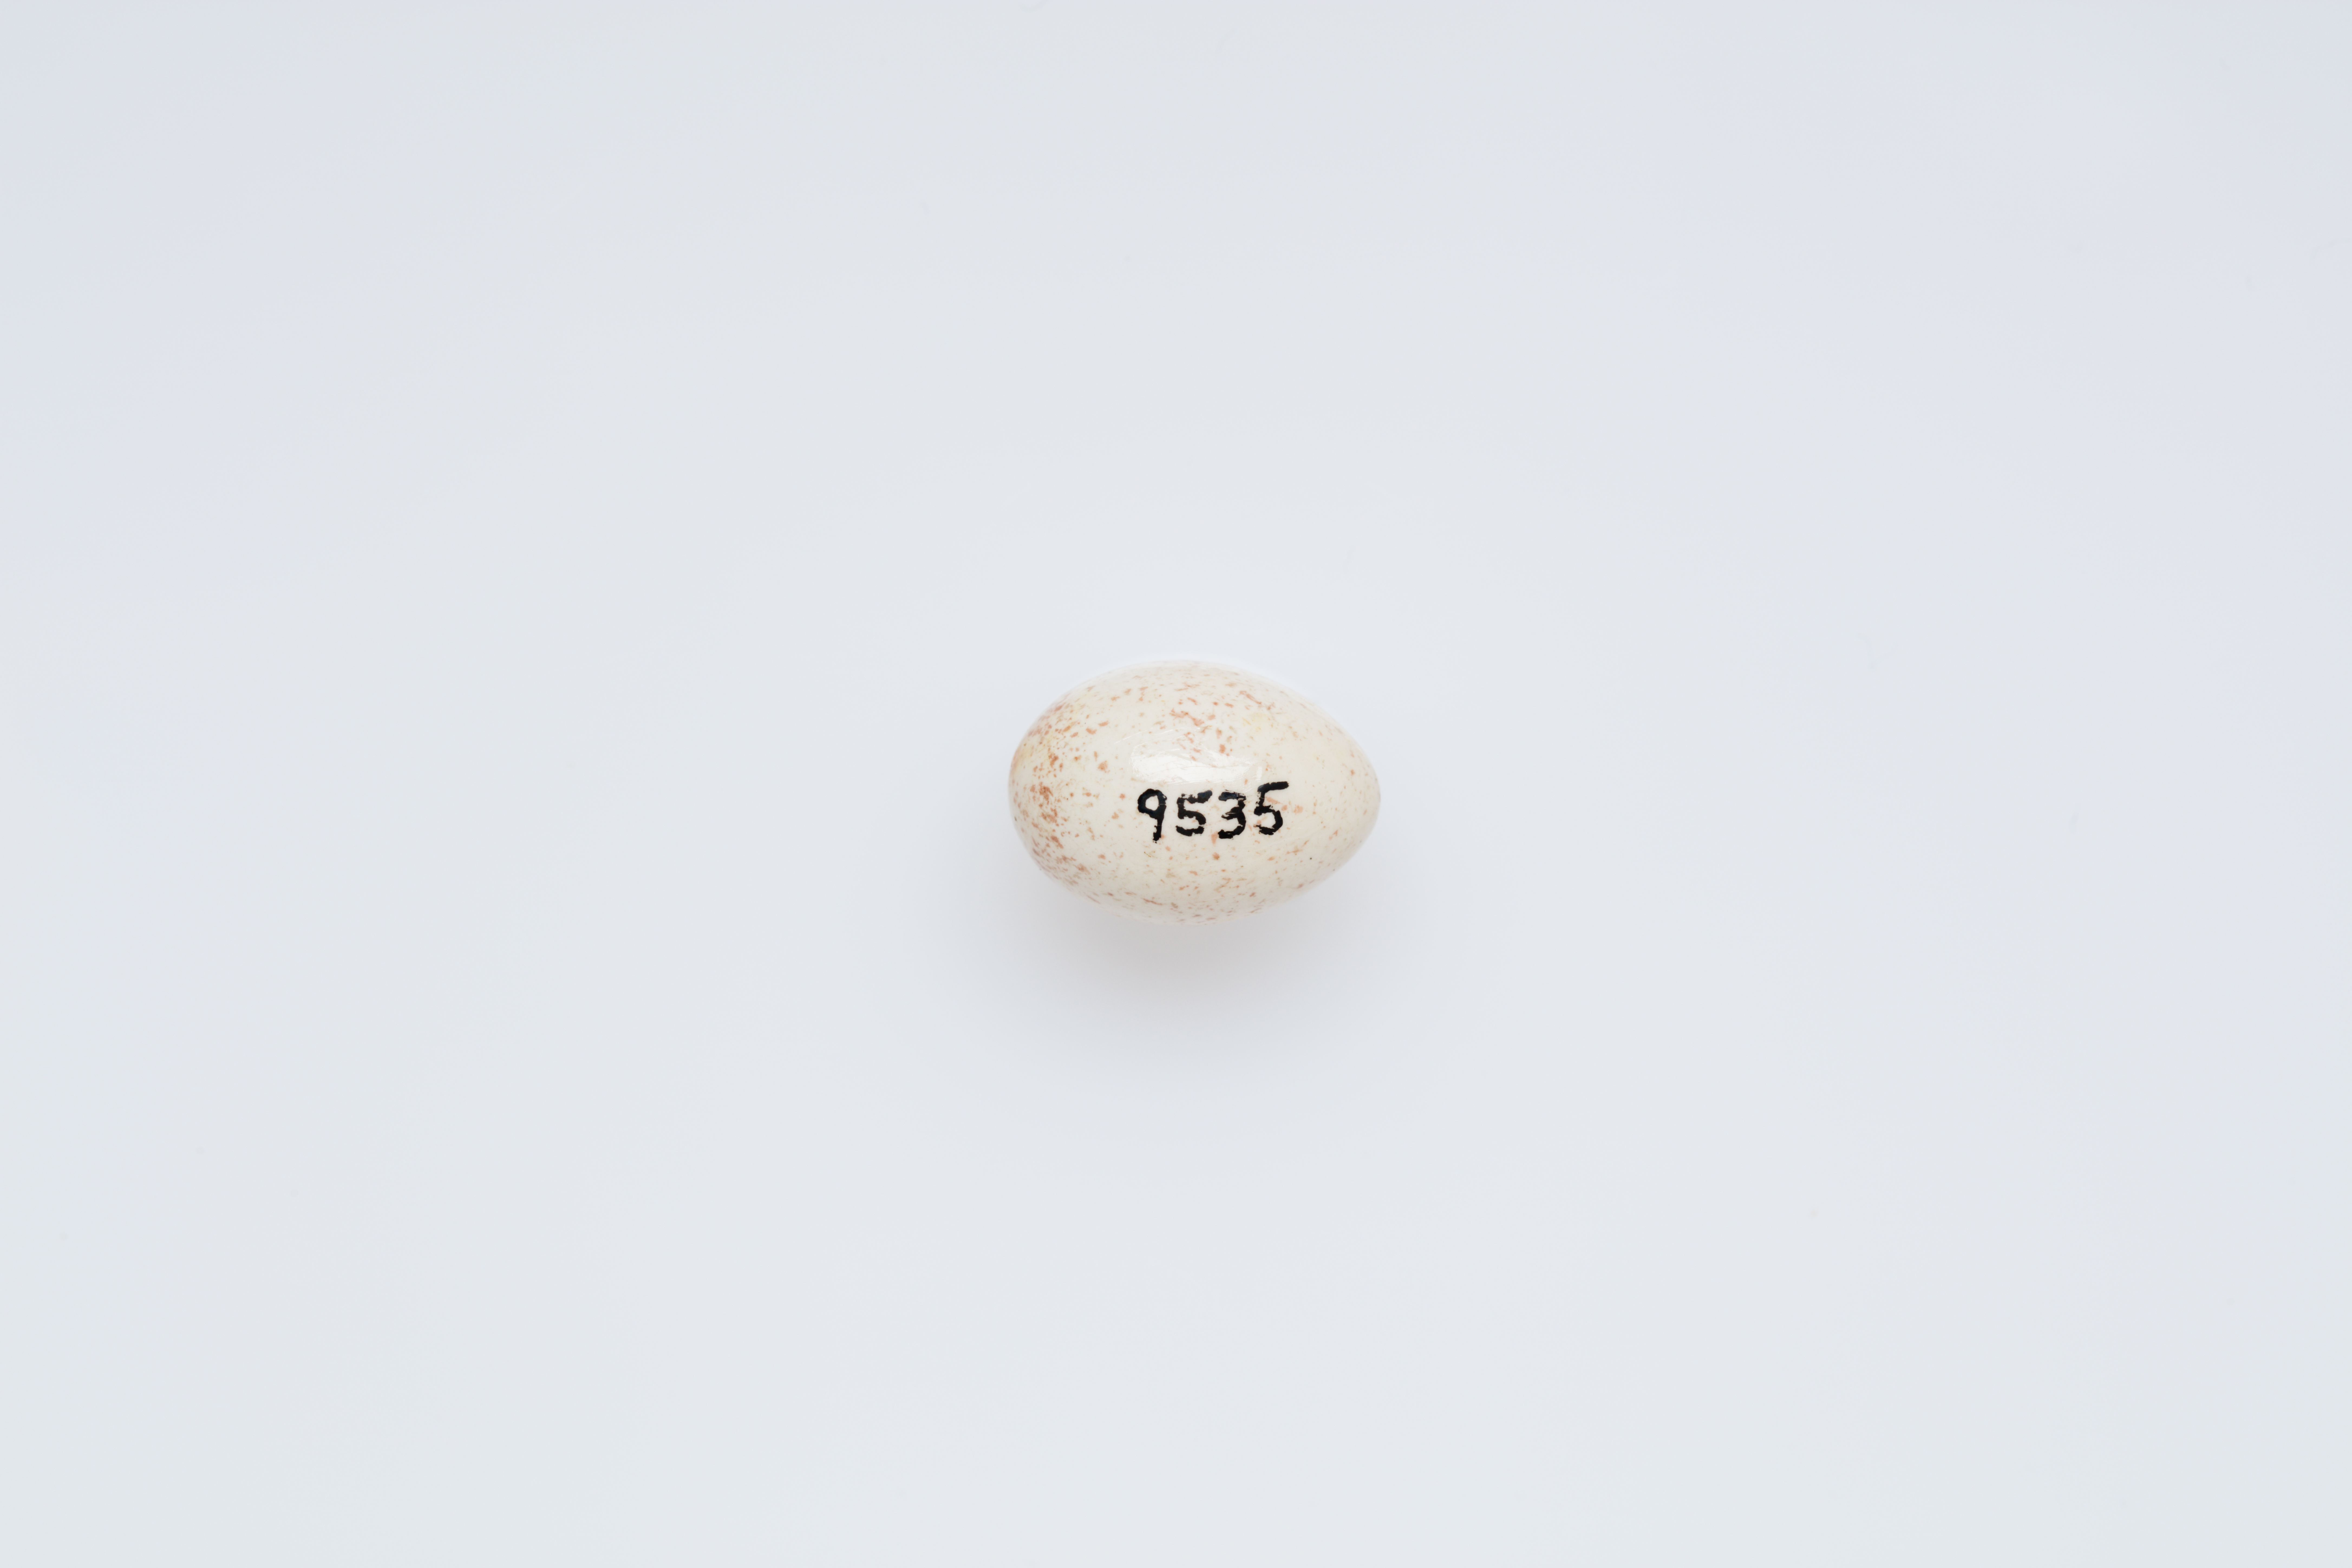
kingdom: Animalia
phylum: Chordata
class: Aves
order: Passeriformes
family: Acanthizidae
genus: Gerygone
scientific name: Gerygone igata
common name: Grey gerygone
